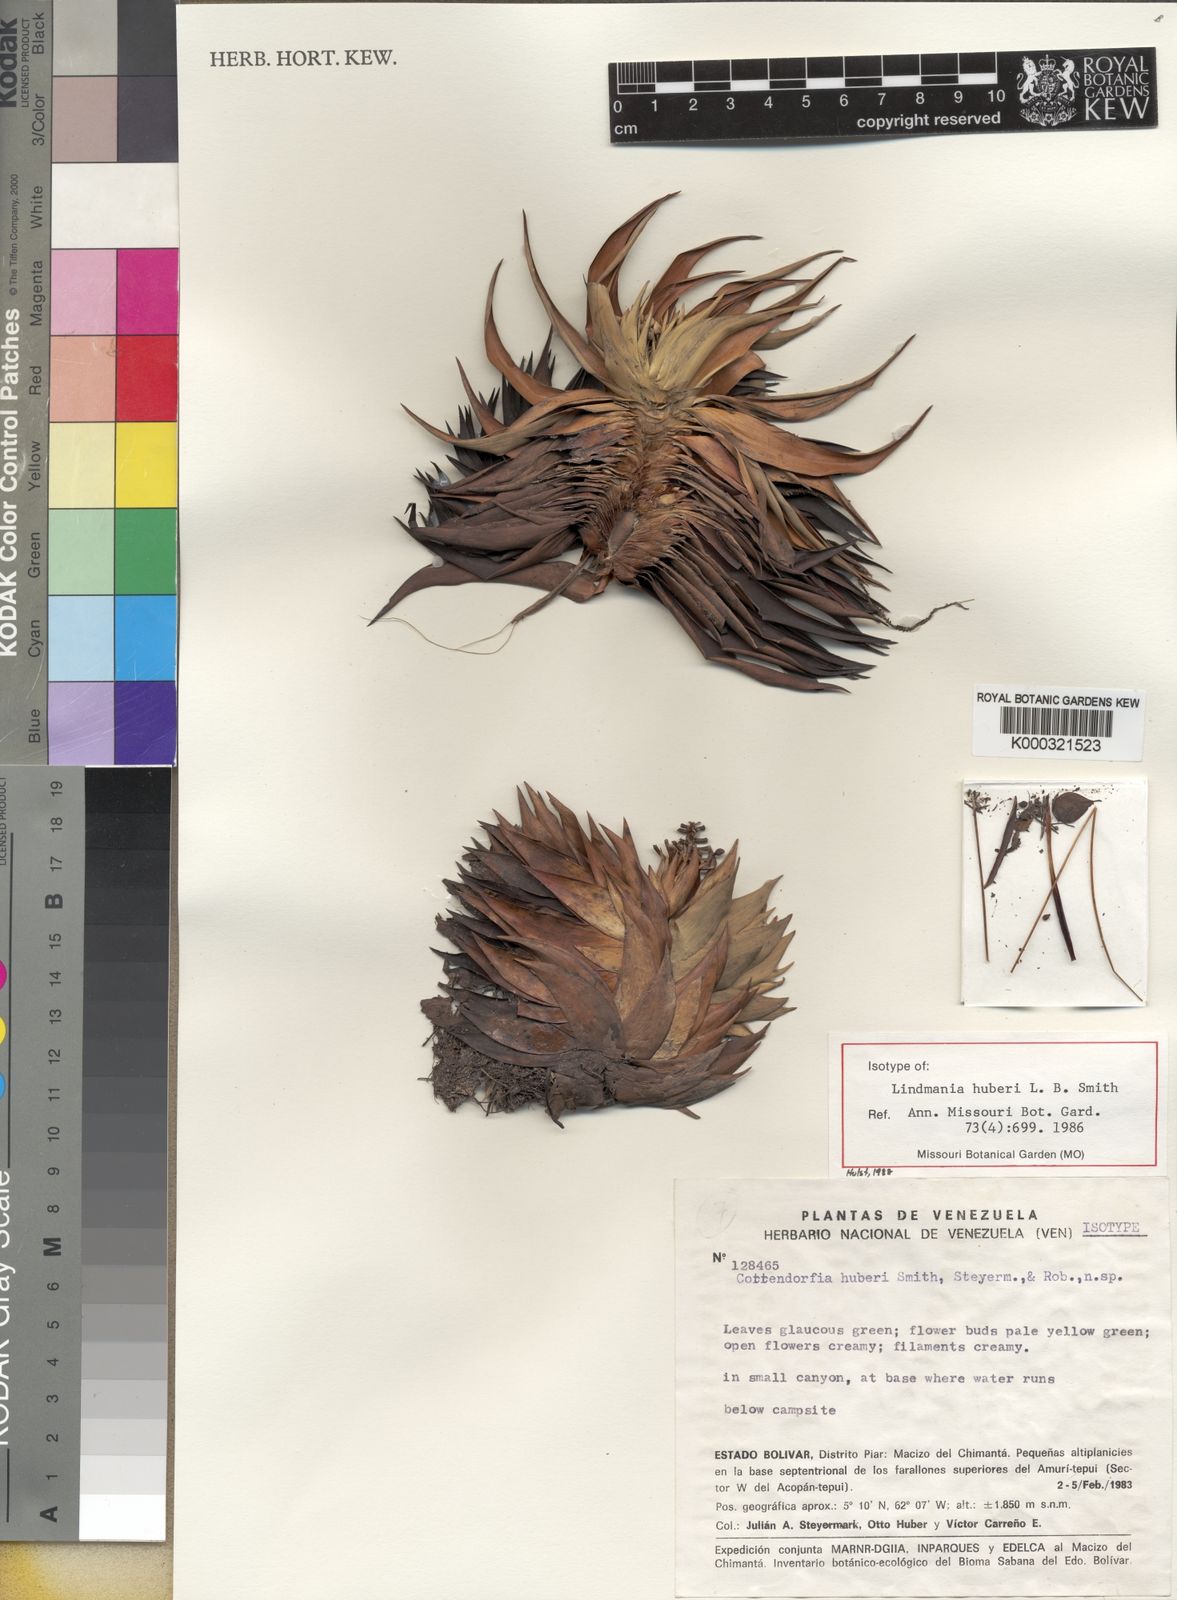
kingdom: Plantae
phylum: Tracheophyta
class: Liliopsida
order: Poales
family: Bromeliaceae
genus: Lindmania
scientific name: Lindmania huberi
